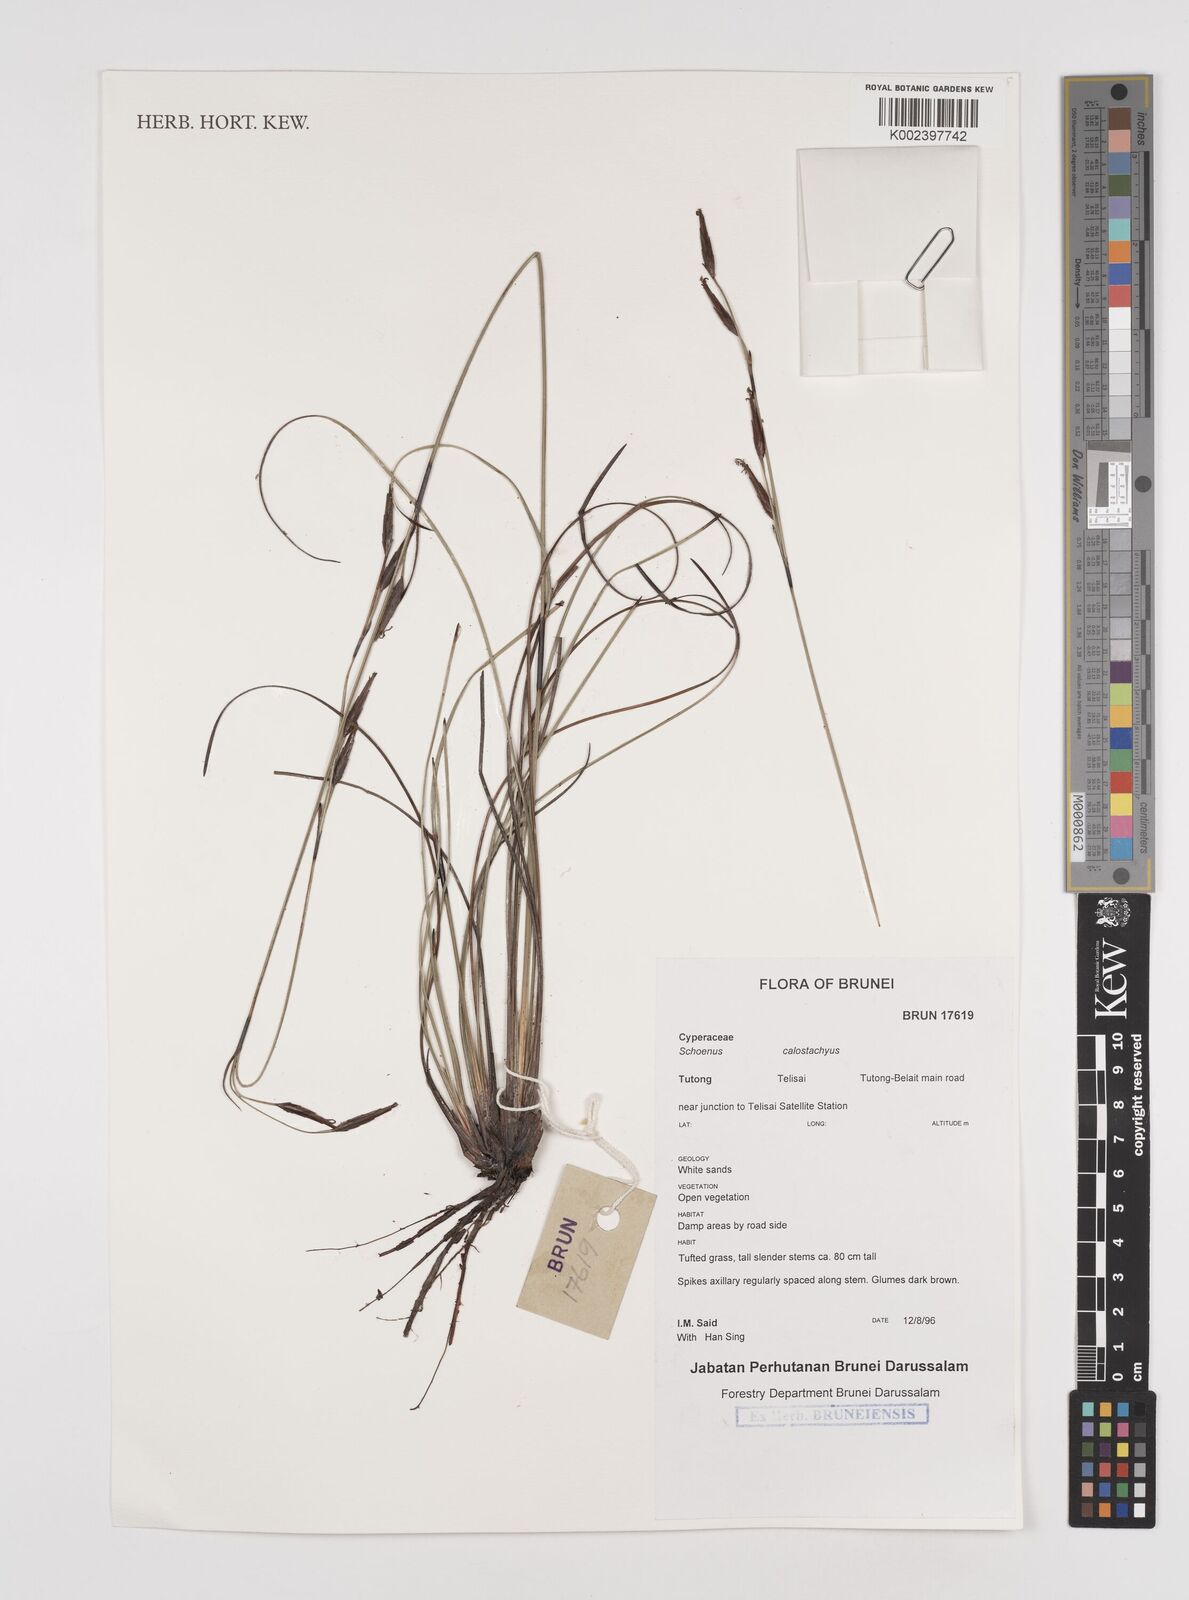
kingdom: Plantae
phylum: Tracheophyta
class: Liliopsida
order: Poales
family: Cyperaceae
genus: Schoenus
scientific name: Schoenus calostachyus
